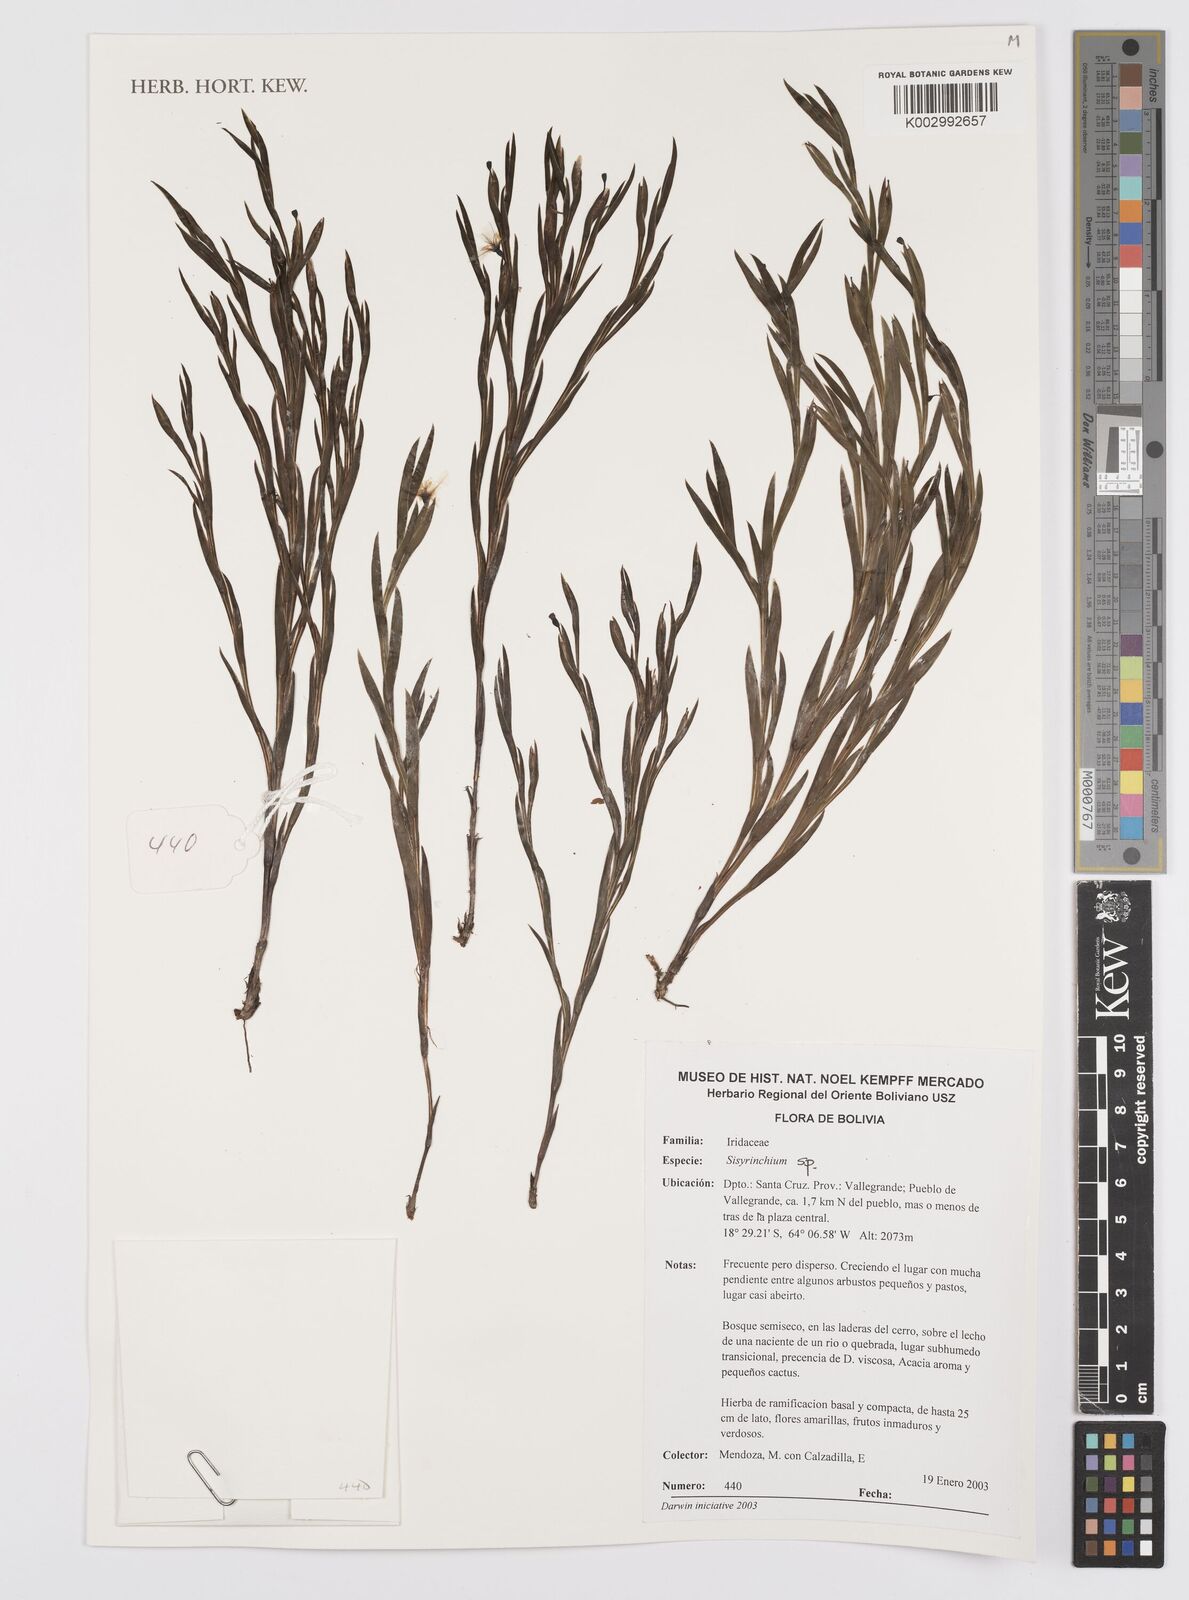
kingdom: Plantae
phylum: Tracheophyta
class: Liliopsida
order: Asparagales
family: Iridaceae
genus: Sisyrinchium
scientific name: Sisyrinchium
